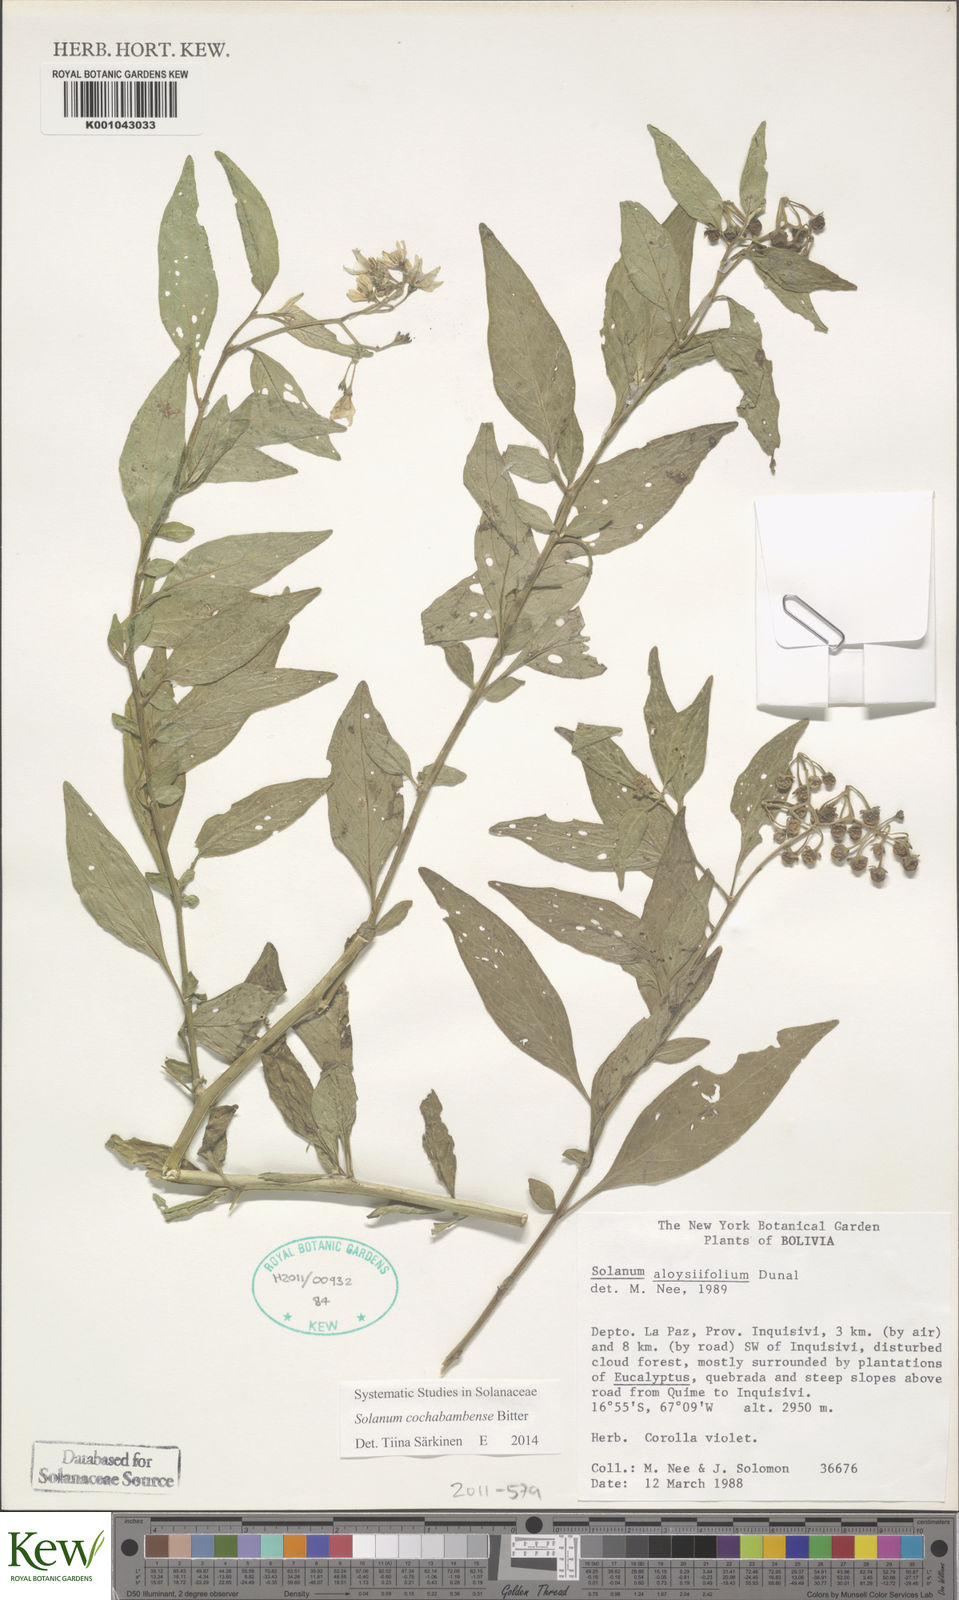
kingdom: Plantae
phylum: Tracheophyta
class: Magnoliopsida
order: Solanales
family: Solanaceae
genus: Solanum
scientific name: Solanum probolospermum
